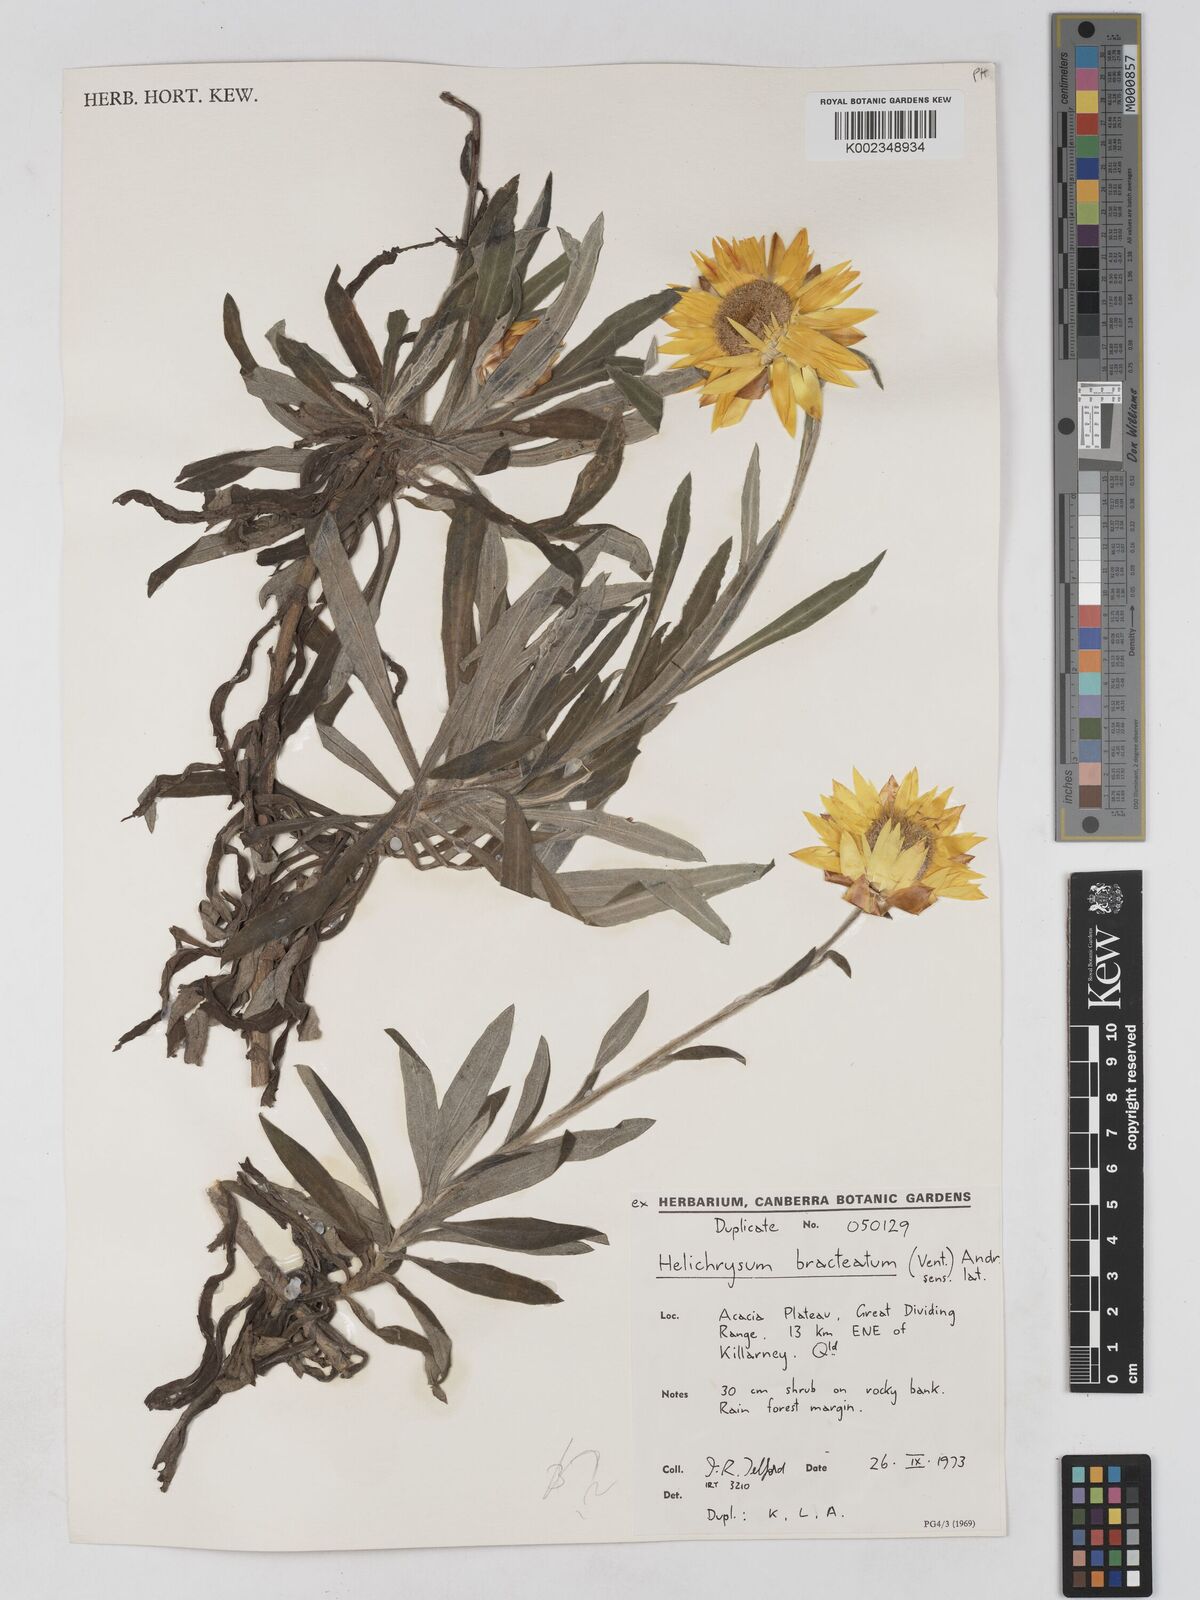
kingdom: Plantae
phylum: Tracheophyta
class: Magnoliopsida
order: Asterales
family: Asteraceae
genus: Xerochrysum
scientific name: Xerochrysum bracteatum
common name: Bracted strawflower
